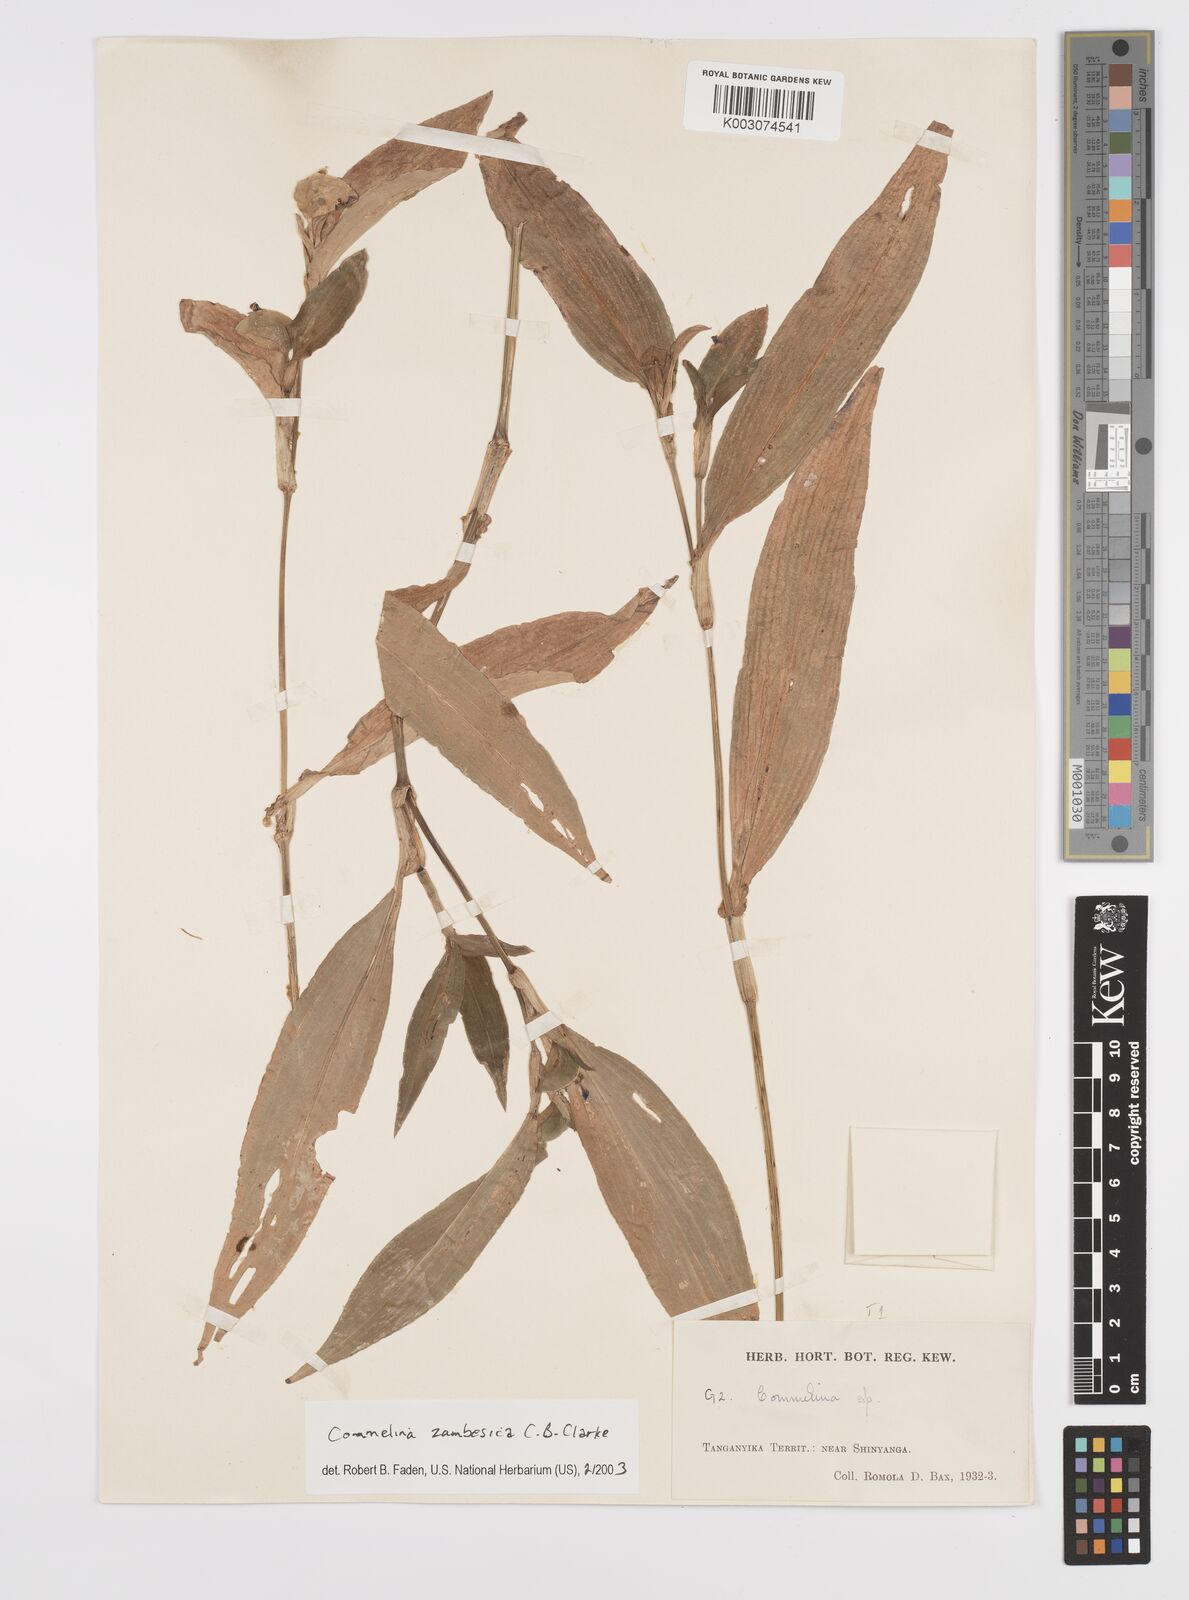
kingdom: Plantae
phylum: Tracheophyta
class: Liliopsida
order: Commelinales
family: Commelinaceae
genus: Commelina
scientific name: Commelina zambesica
